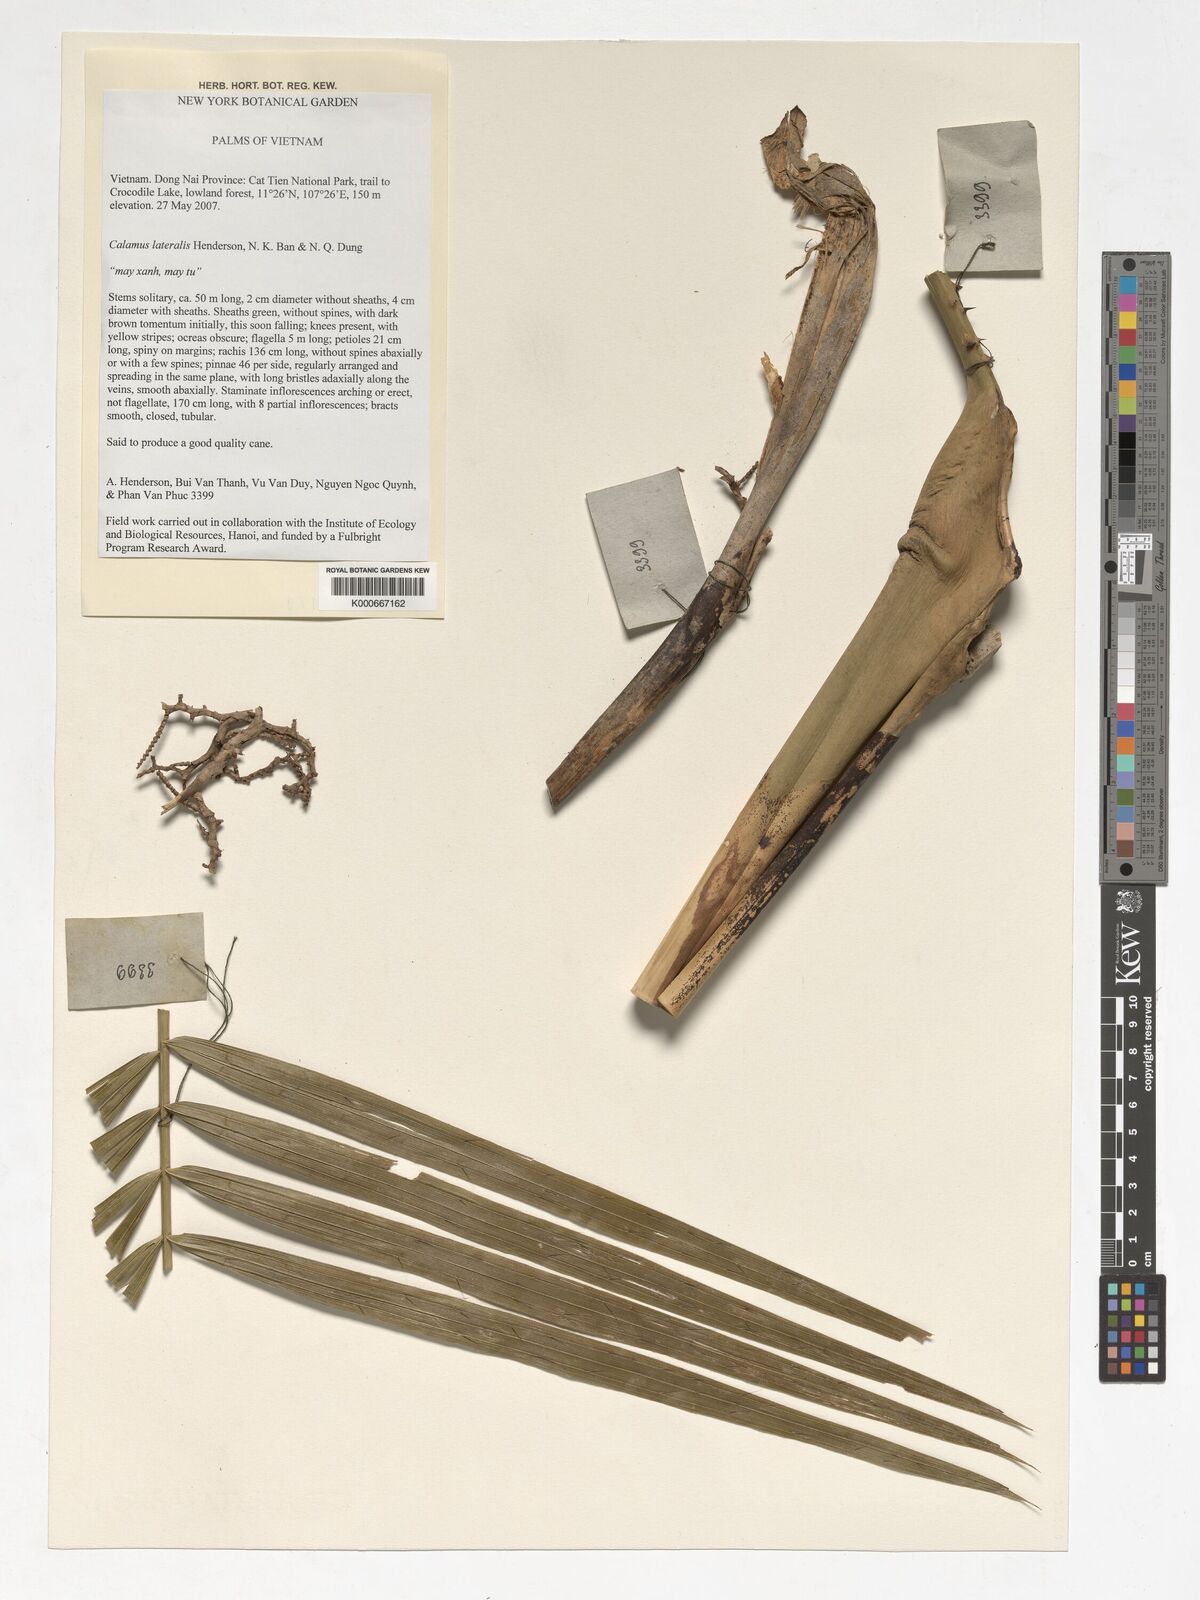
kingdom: Plantae
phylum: Tracheophyta
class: Liliopsida
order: Arecales
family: Arecaceae
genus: Calamus
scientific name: Calamus lateralis
